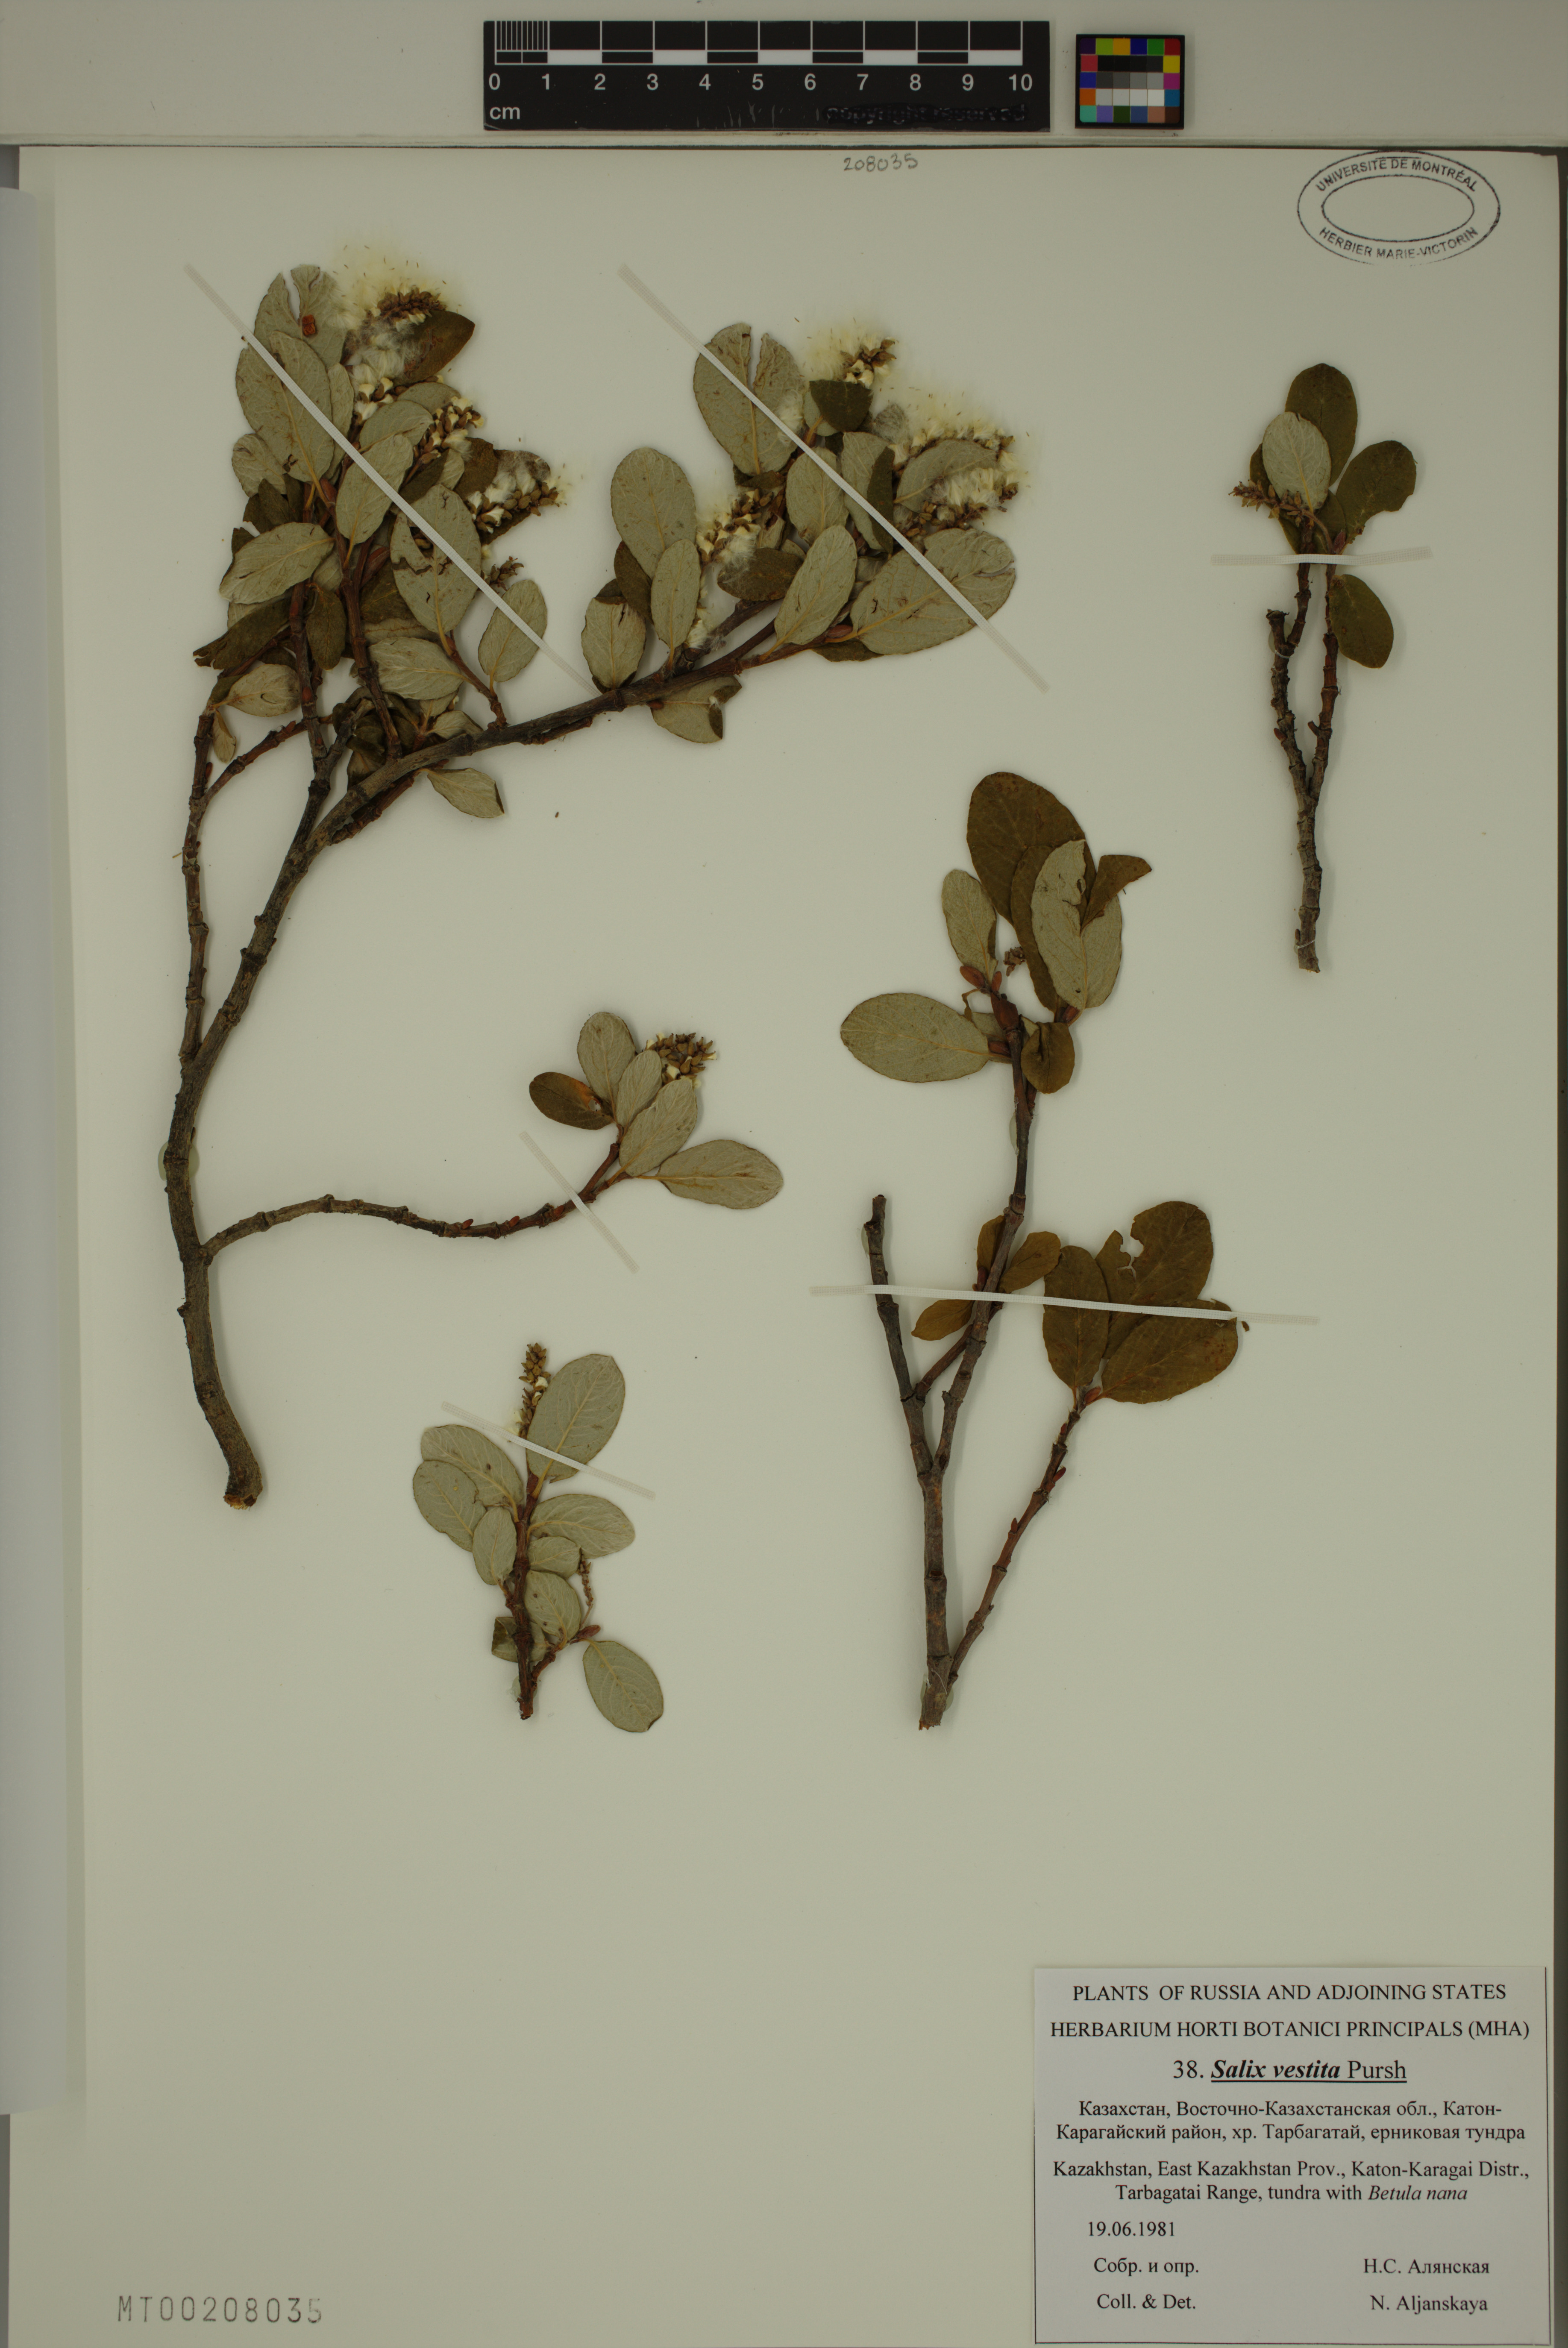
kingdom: Plantae
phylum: Tracheophyta
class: Magnoliopsida
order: Malpighiales
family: Salicaceae
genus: Salix
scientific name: Salix vestita
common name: Hairy willow
